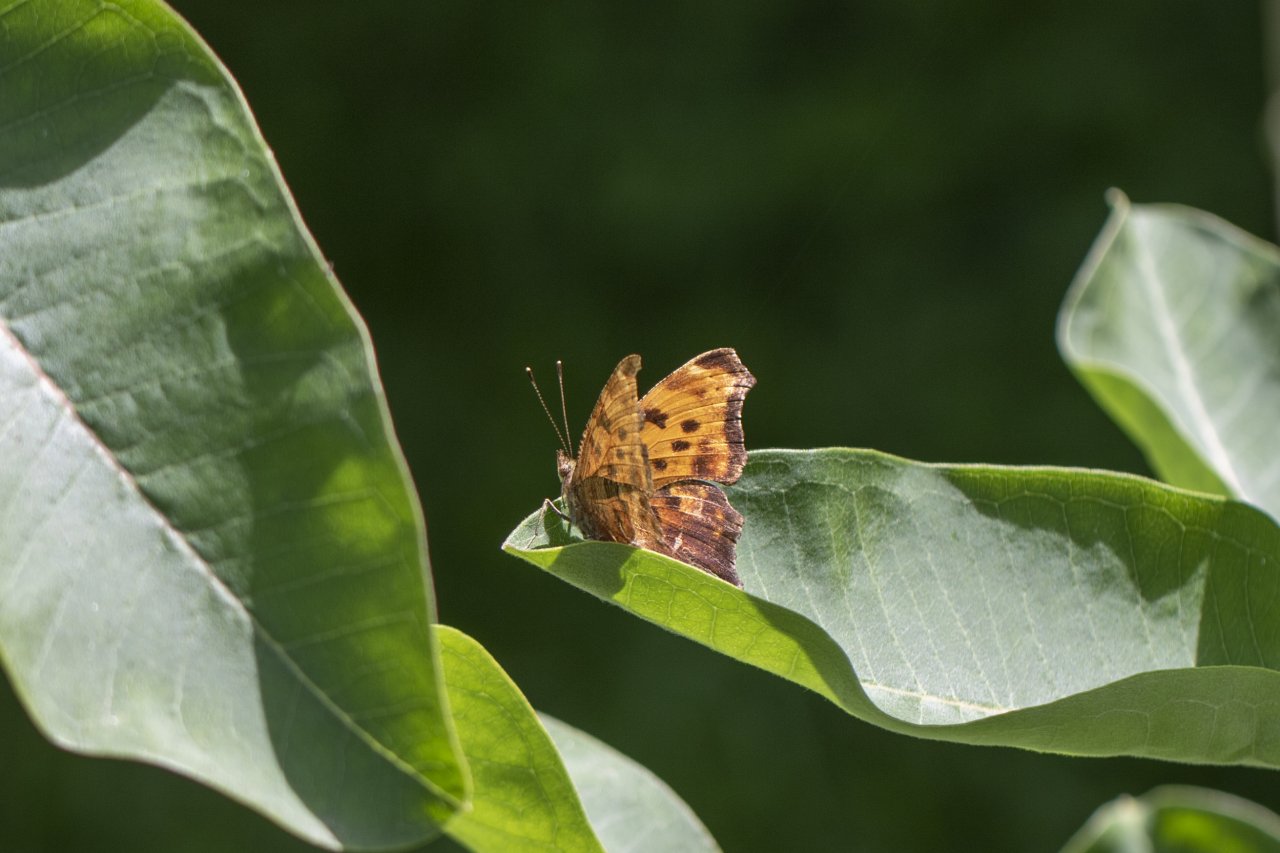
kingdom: Animalia
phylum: Arthropoda
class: Insecta
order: Lepidoptera
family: Nymphalidae
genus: Polygonia
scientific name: Polygonia comma
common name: Eastern Comma
